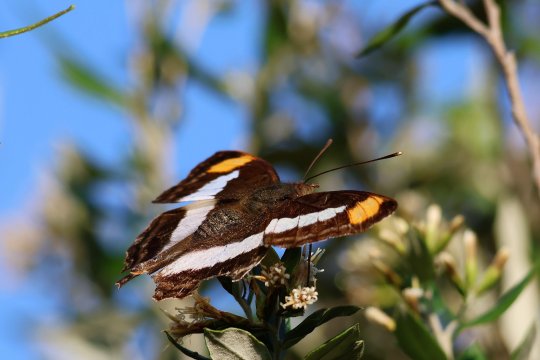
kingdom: Animalia
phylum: Arthropoda
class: Insecta
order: Lepidoptera
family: Nymphalidae
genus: Doxocopa
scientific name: Doxocopa pavon
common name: Pavon Emperor
